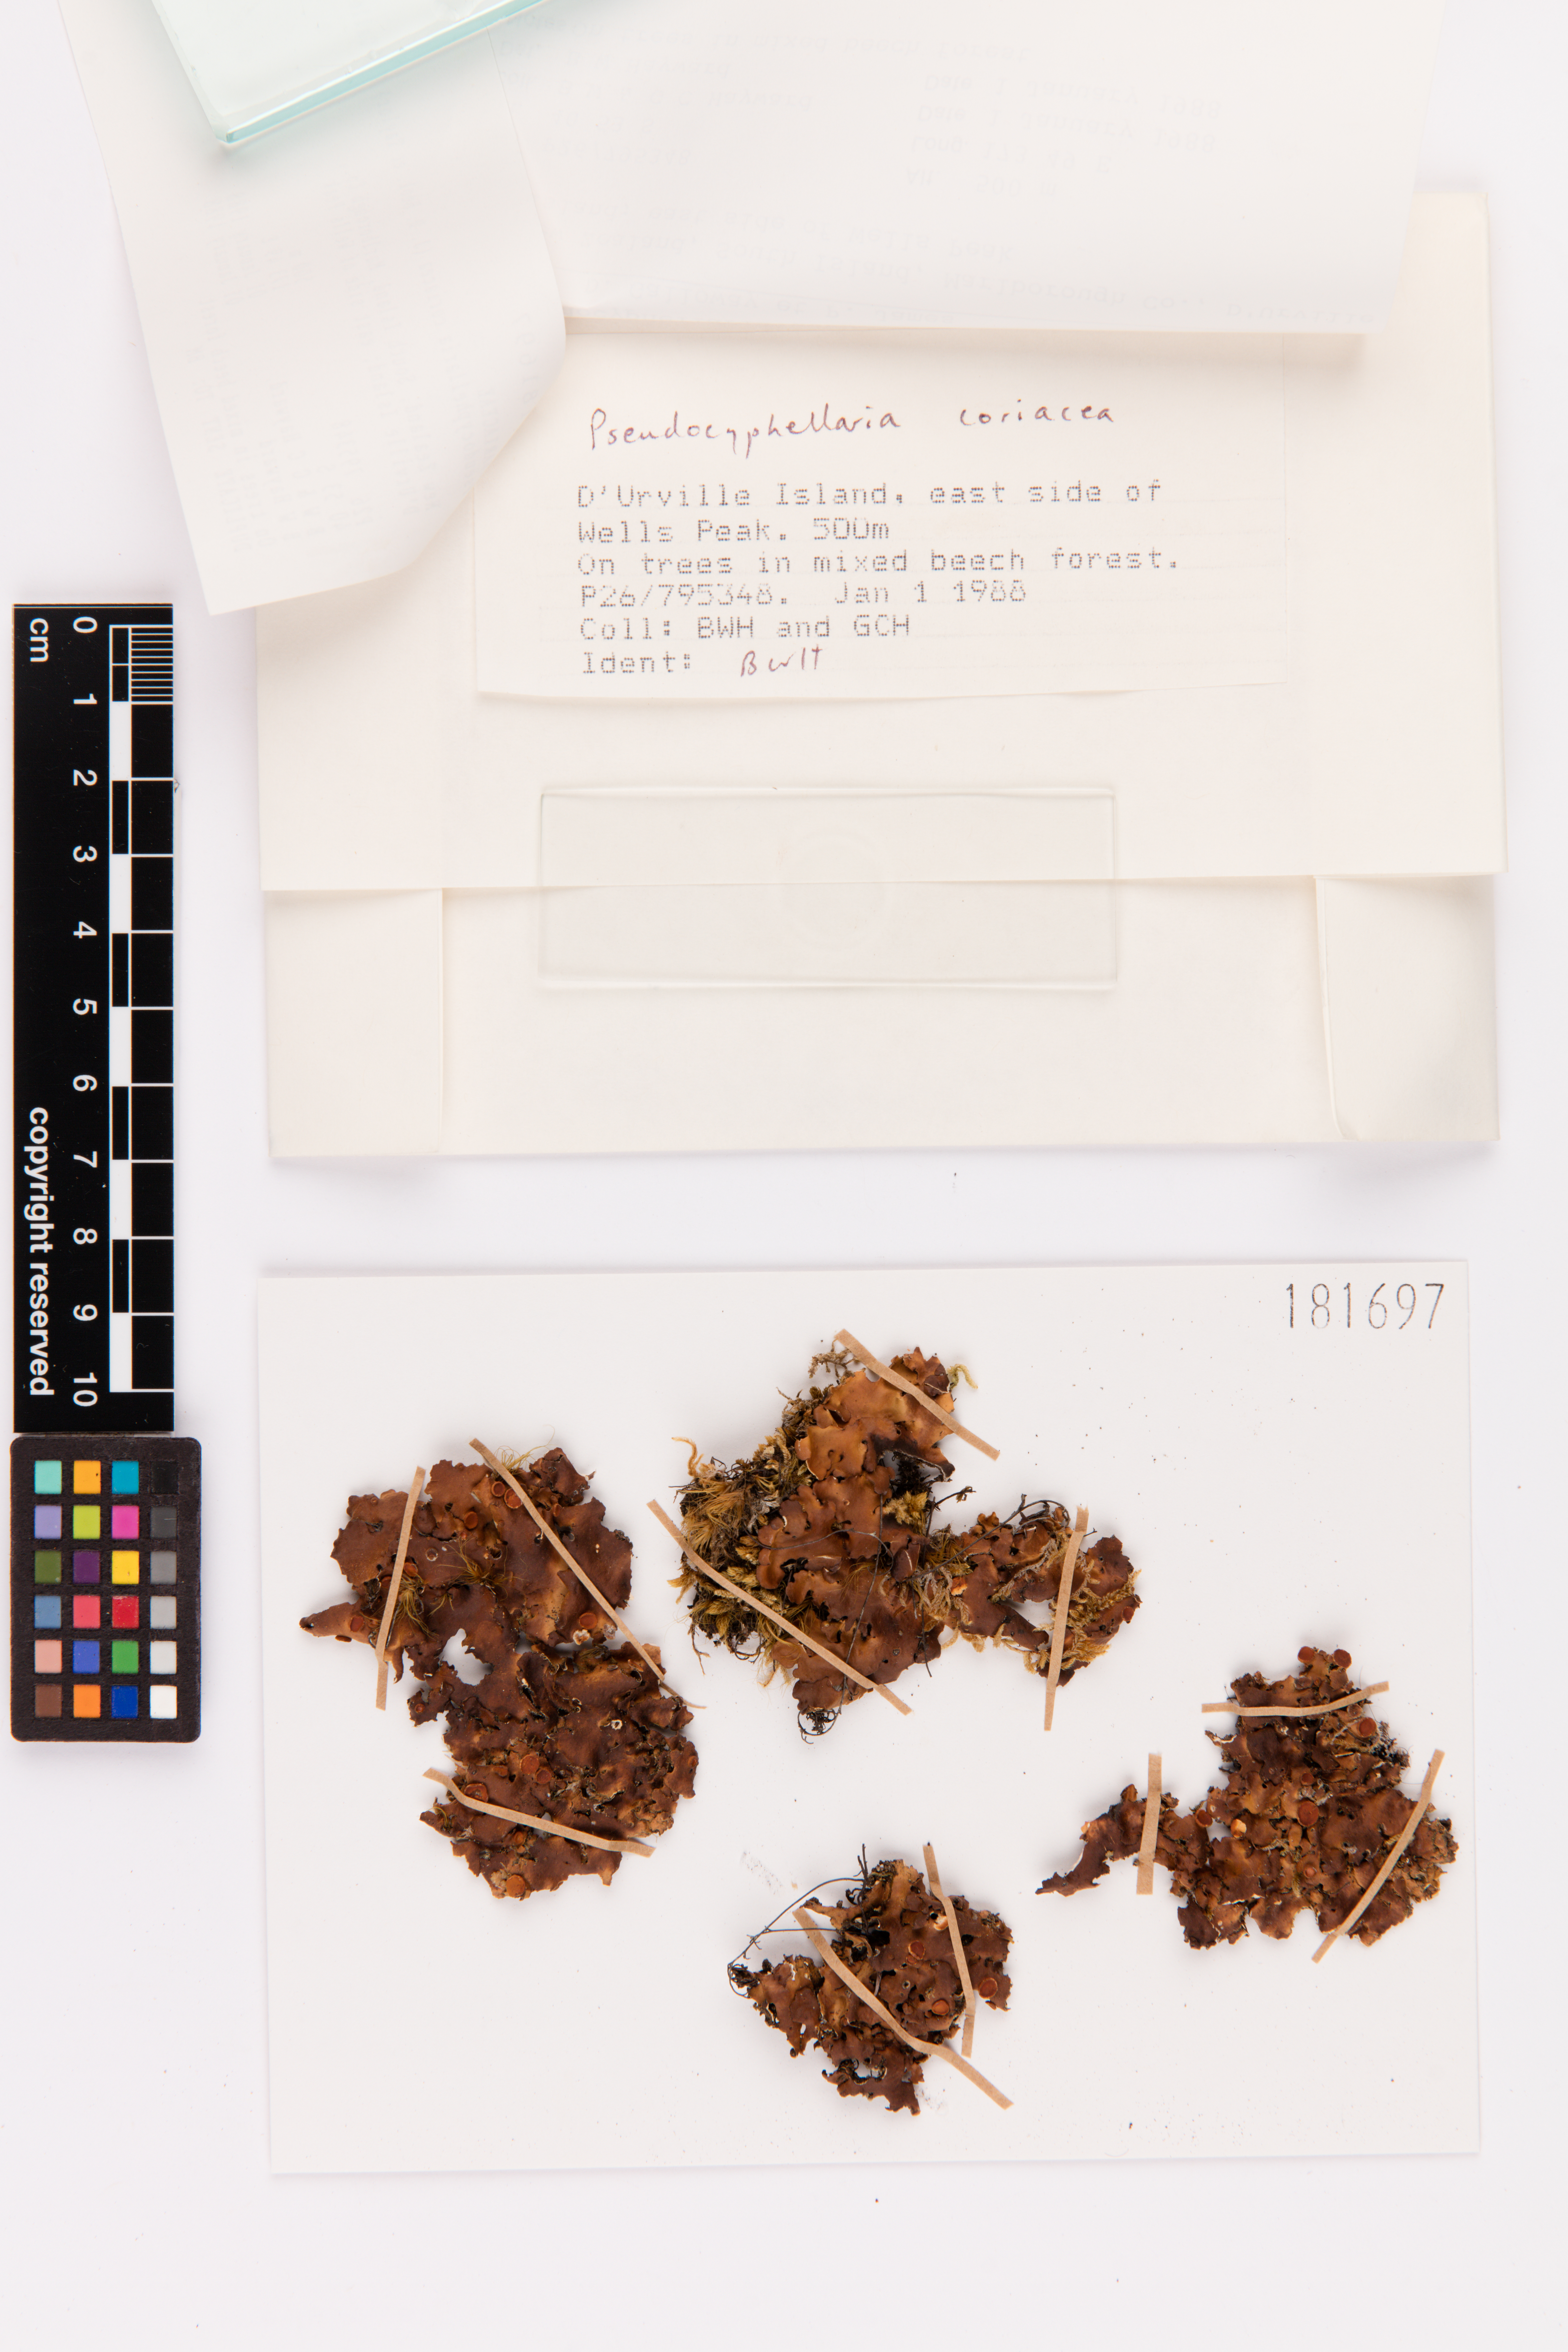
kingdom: Fungi
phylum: Ascomycota
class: Lecanoromycetes
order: Peltigerales
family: Lobariaceae
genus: Pseudocyphellaria
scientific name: Pseudocyphellaria coriacea
